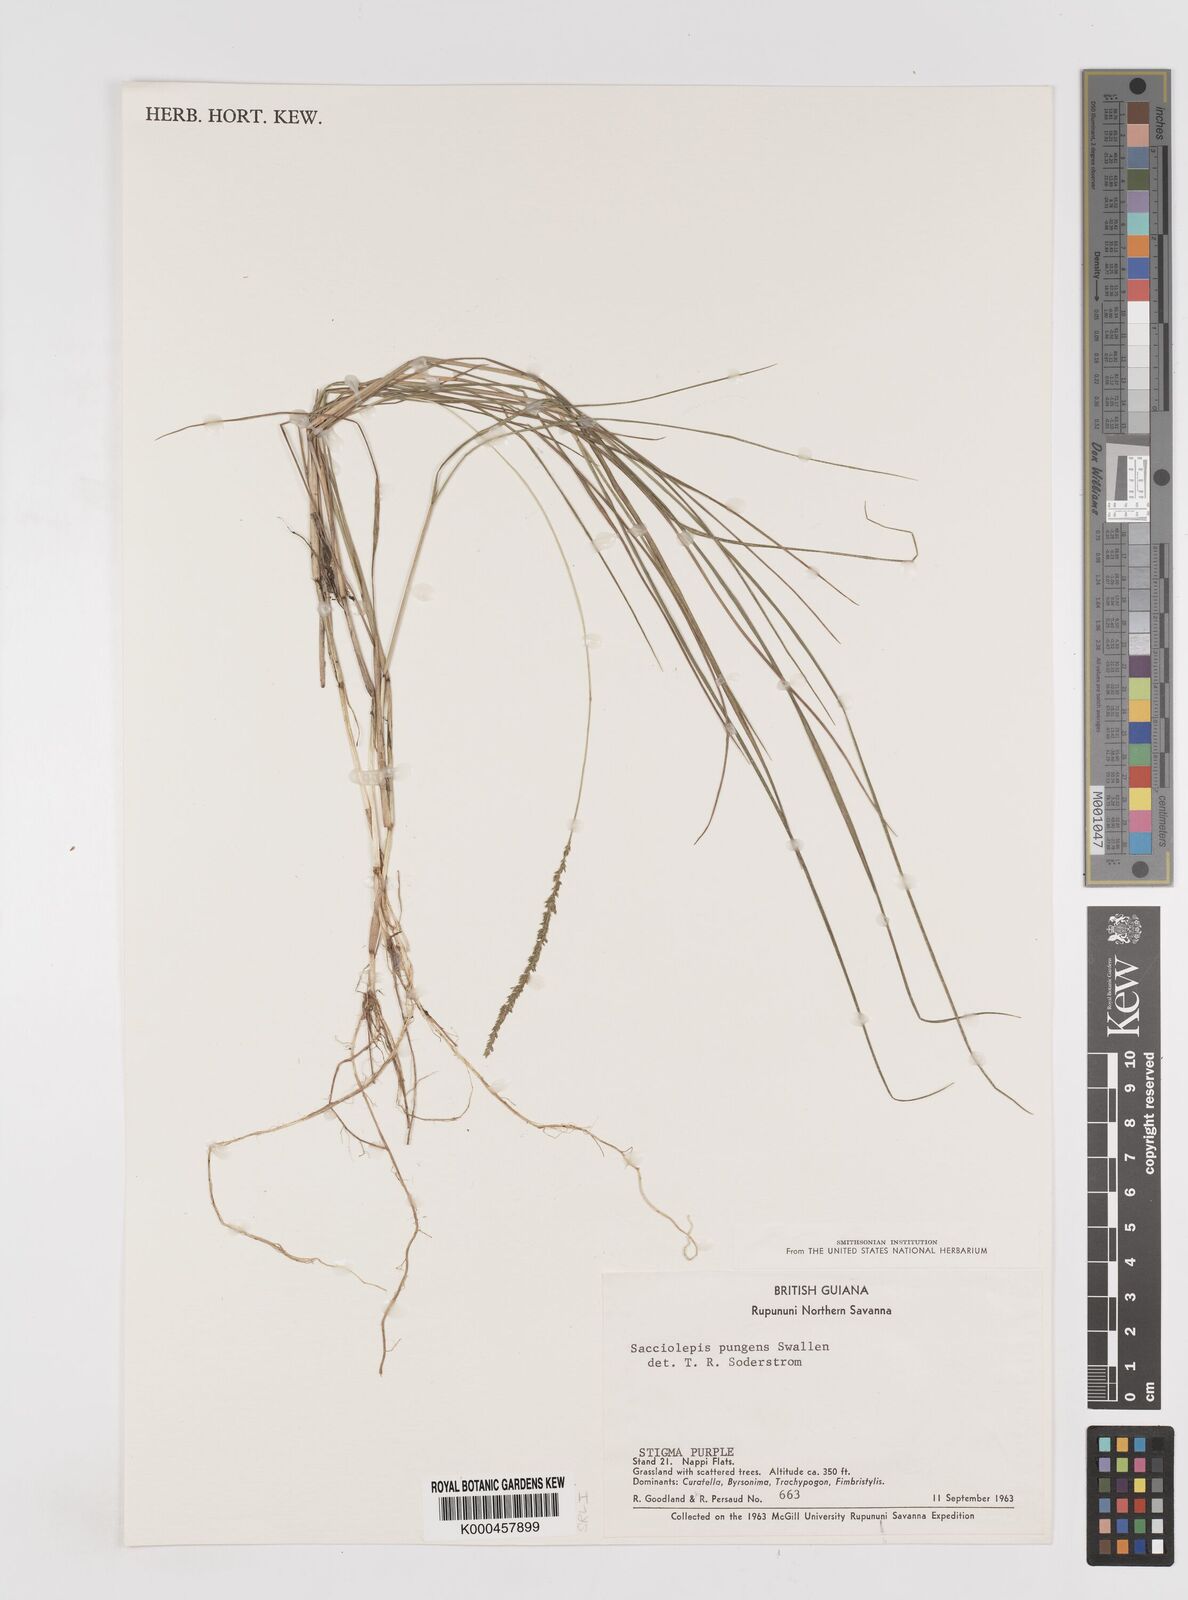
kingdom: Plantae
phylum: Tracheophyta
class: Liliopsida
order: Poales
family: Poaceae
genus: Sacciolepis
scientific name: Sacciolepis angustissima
